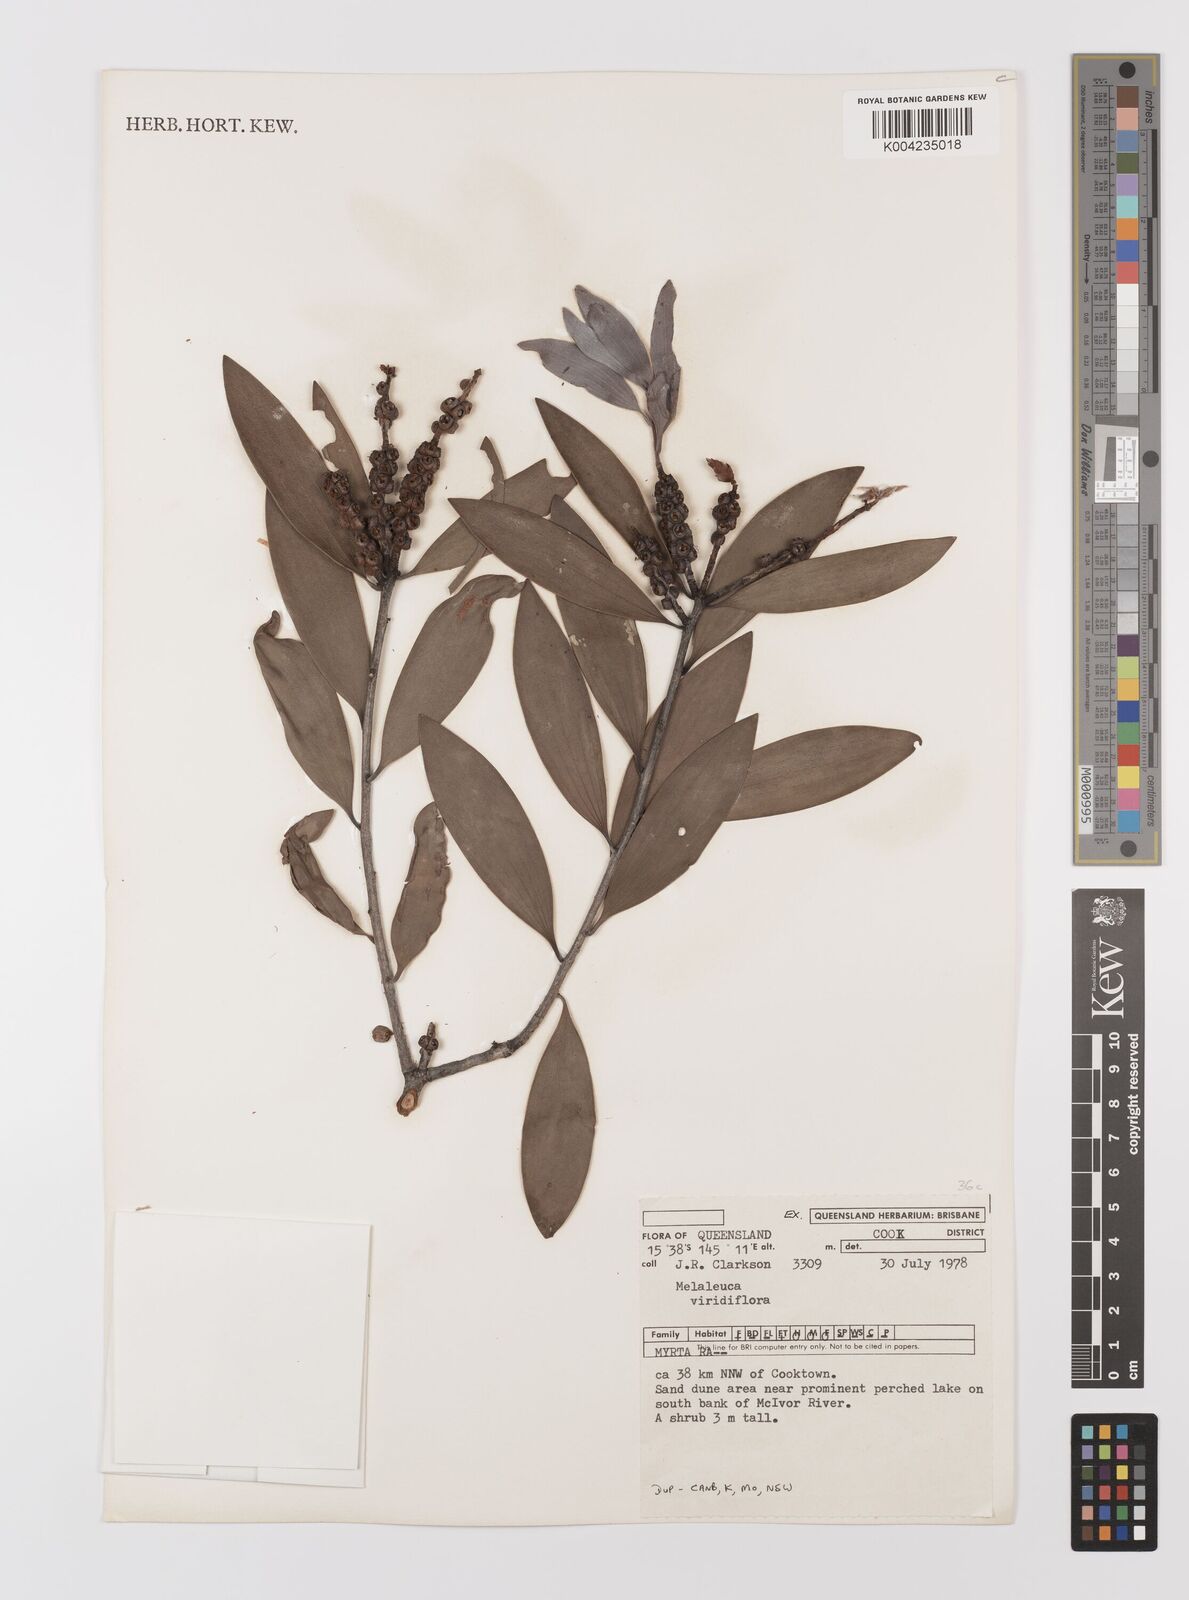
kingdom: Plantae
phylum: Tracheophyta
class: Magnoliopsida
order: Myrtales
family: Myrtaceae
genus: Melaleuca
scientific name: Melaleuca viridiflora
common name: Brown-leaved paperbark
